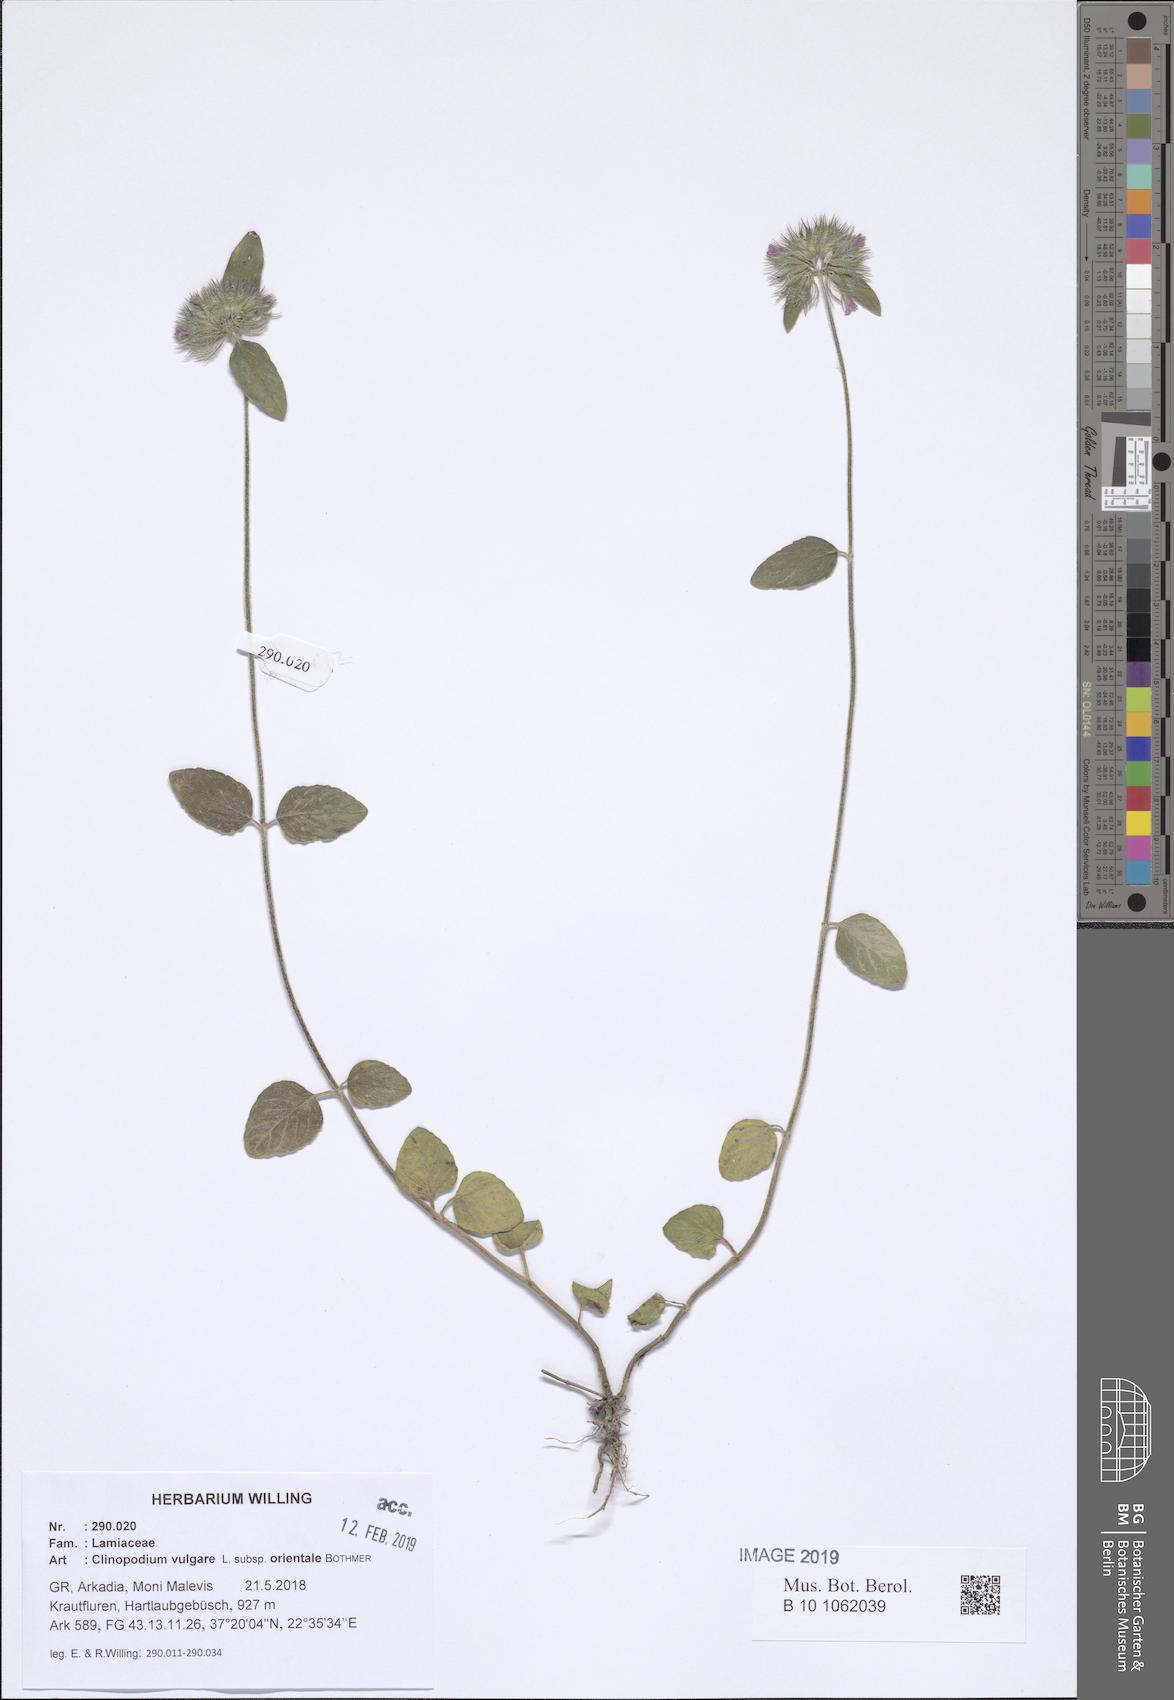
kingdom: Plantae
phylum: Tracheophyta
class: Magnoliopsida
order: Lamiales
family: Lamiaceae
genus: Clinopodium
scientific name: Clinopodium vulgare
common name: Wild basil
